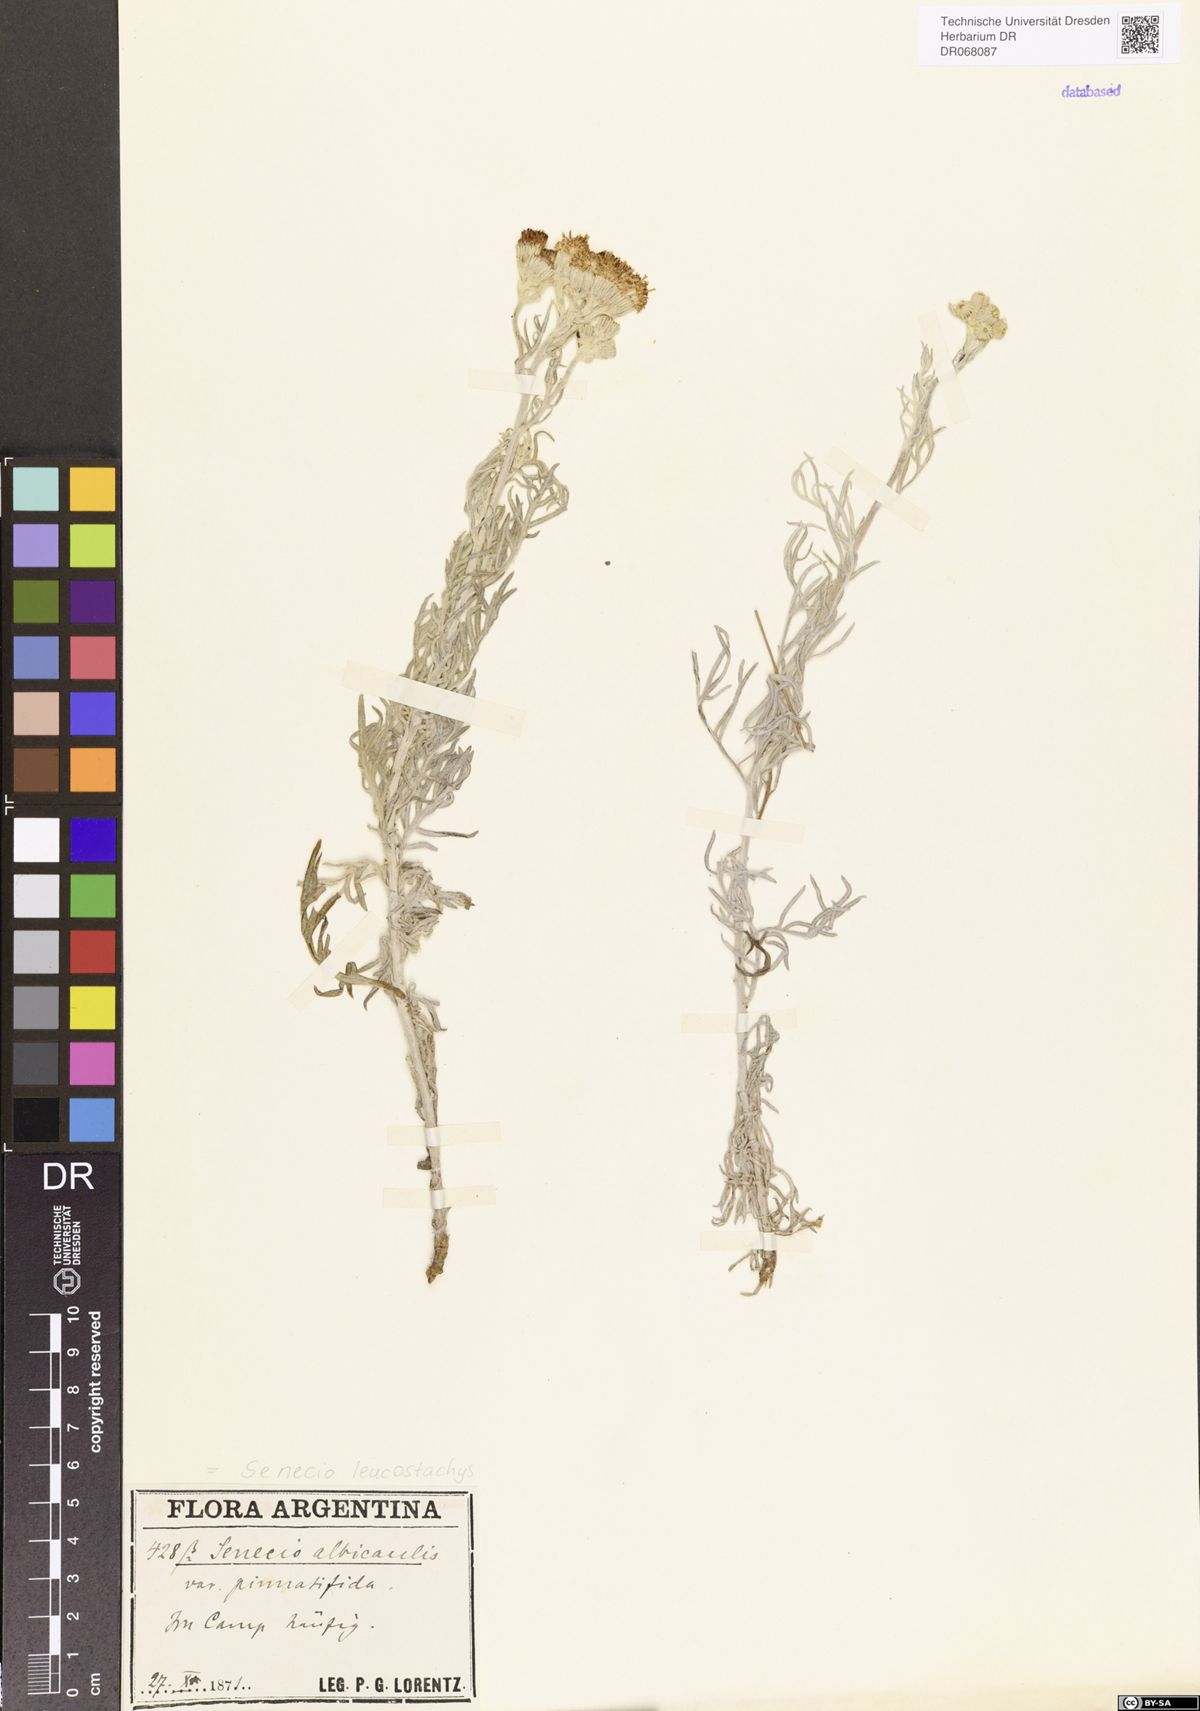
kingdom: Plantae
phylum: Tracheophyta
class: Magnoliopsida
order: Asterales
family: Asteraceae
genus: Senecio
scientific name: Senecio leucostachys
